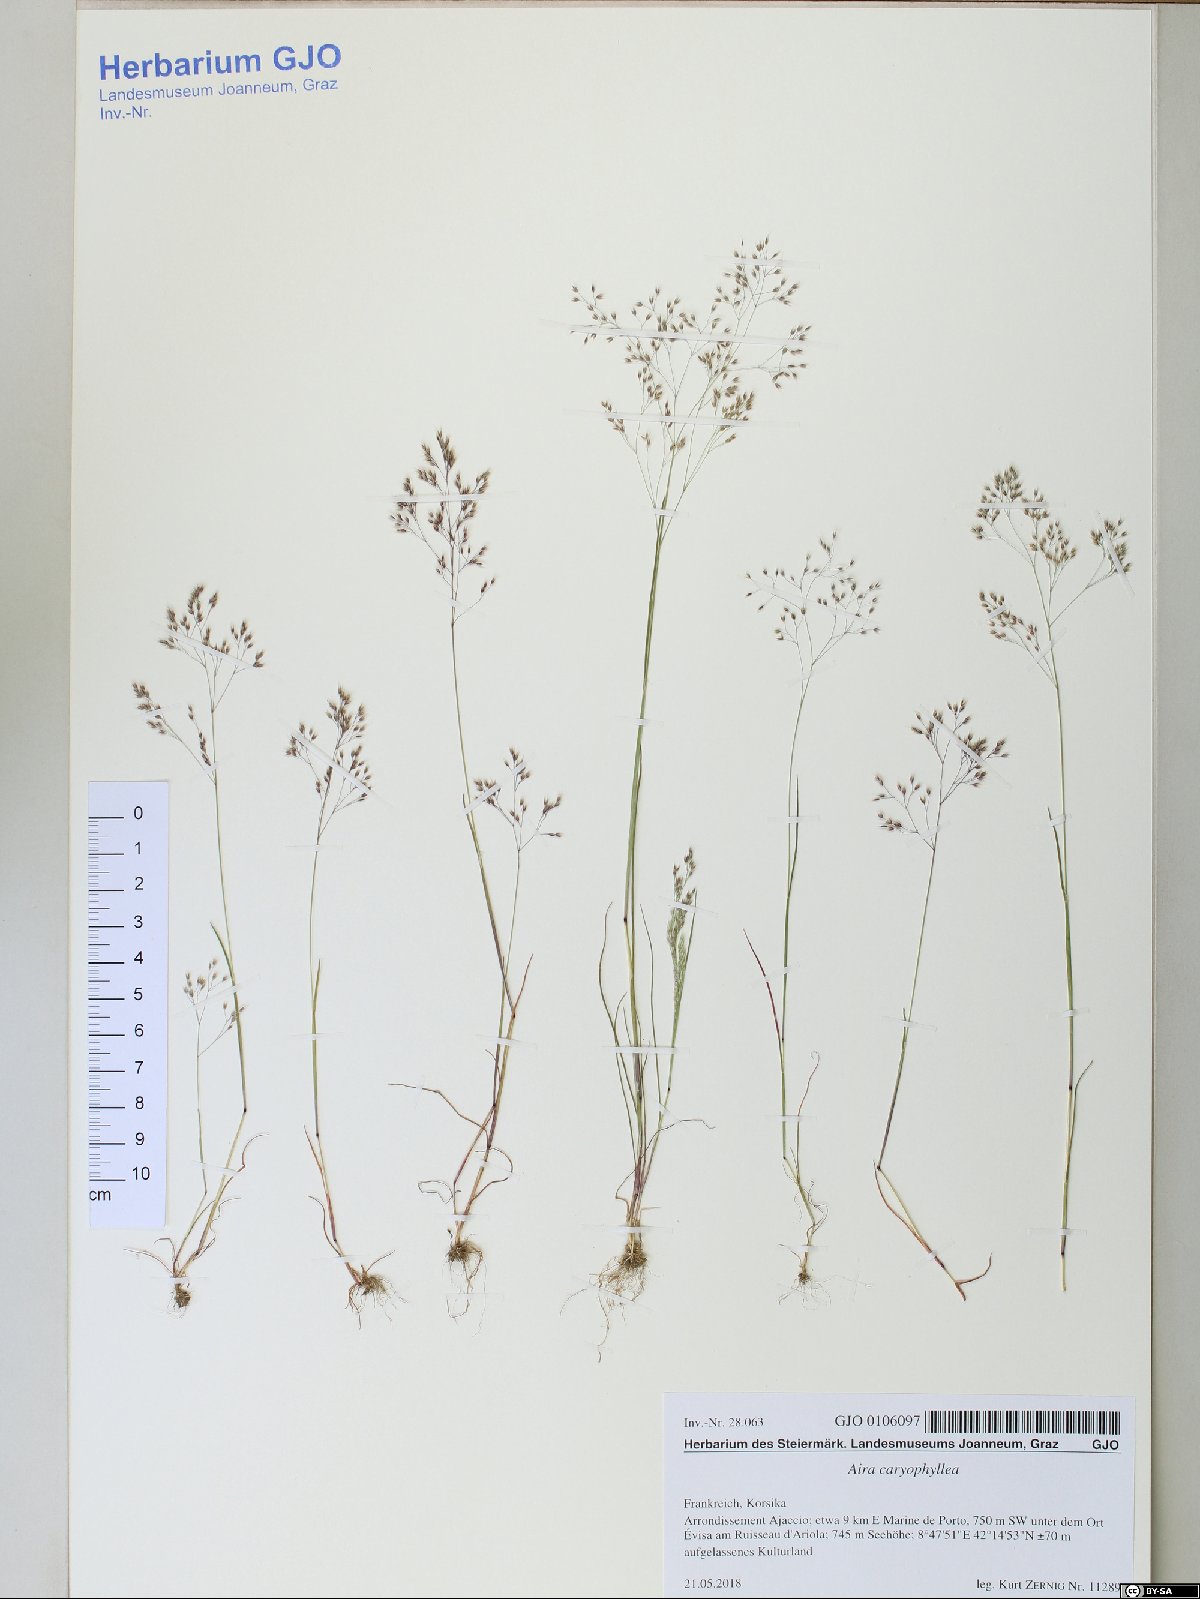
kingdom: Plantae
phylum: Tracheophyta
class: Liliopsida
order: Poales
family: Poaceae
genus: Aira
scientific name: Aira caryophyllea
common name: Silver hairgrass
